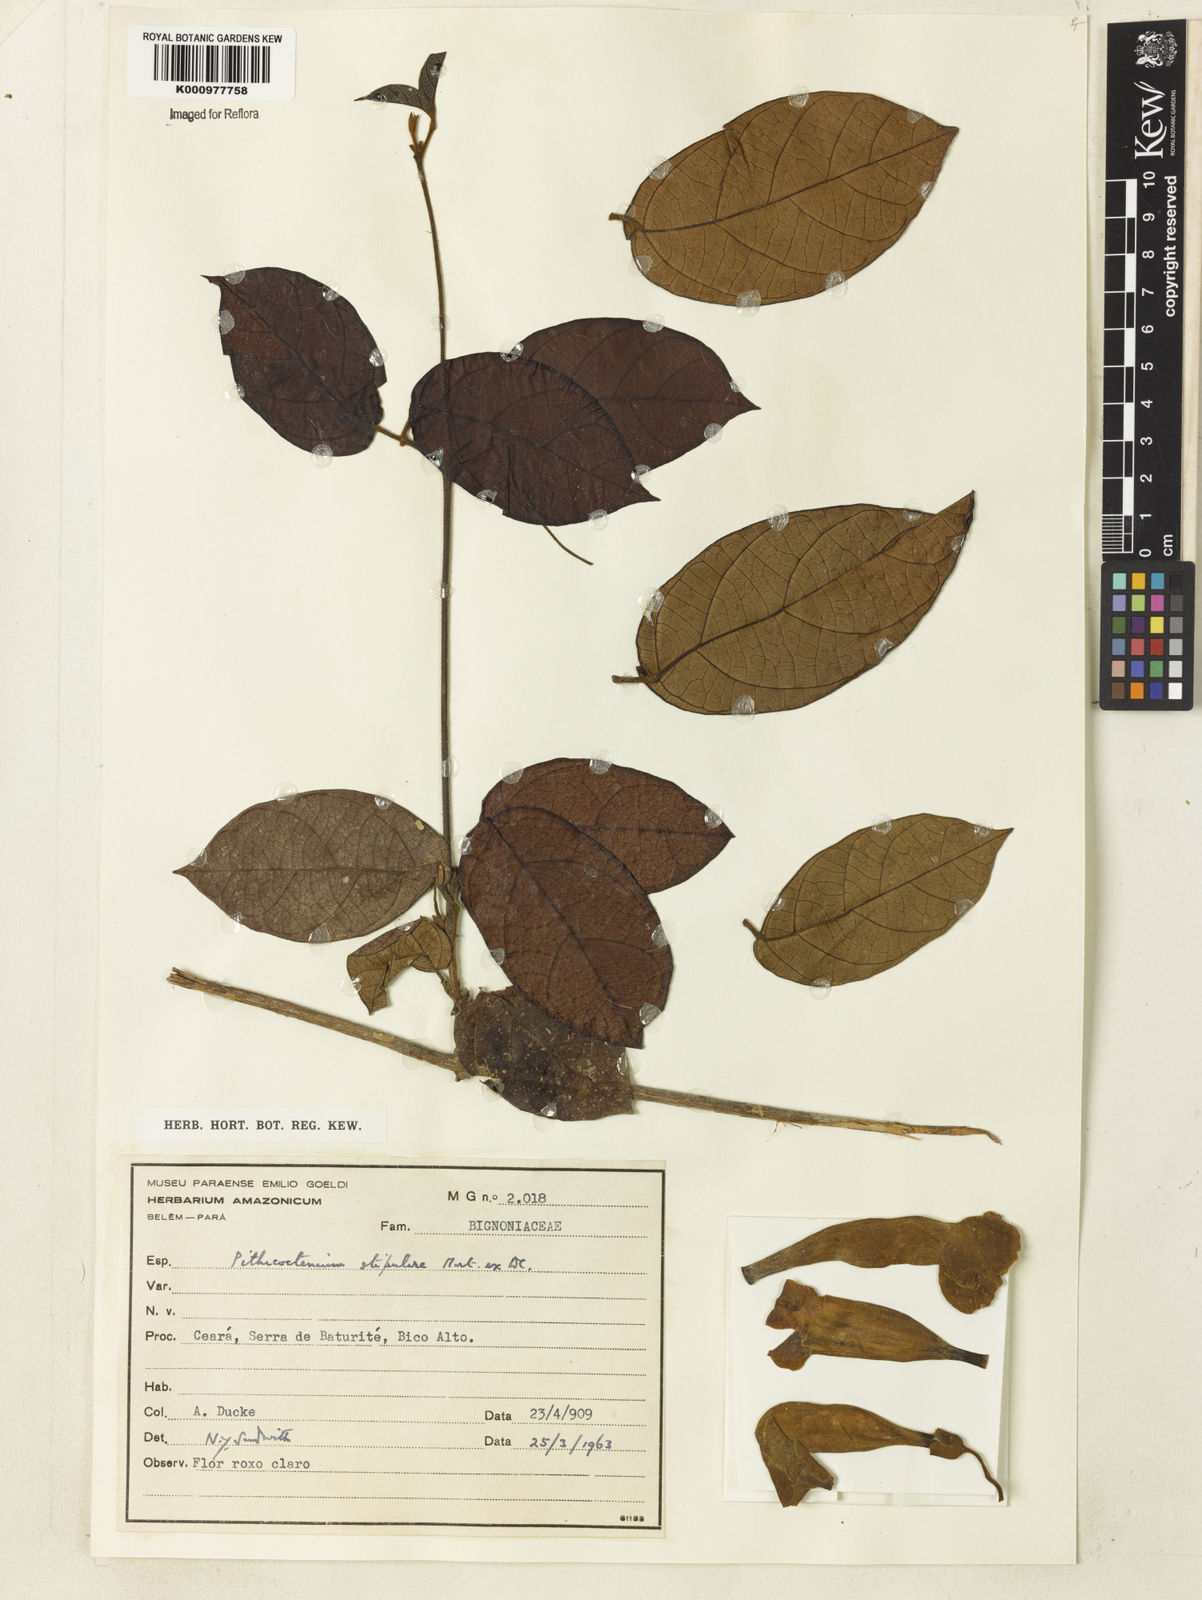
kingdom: Plantae
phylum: Tracheophyta
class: Magnoliopsida
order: Lamiales
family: Bignoniaceae
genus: Pithecoctenium
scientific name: Pithecoctenium
